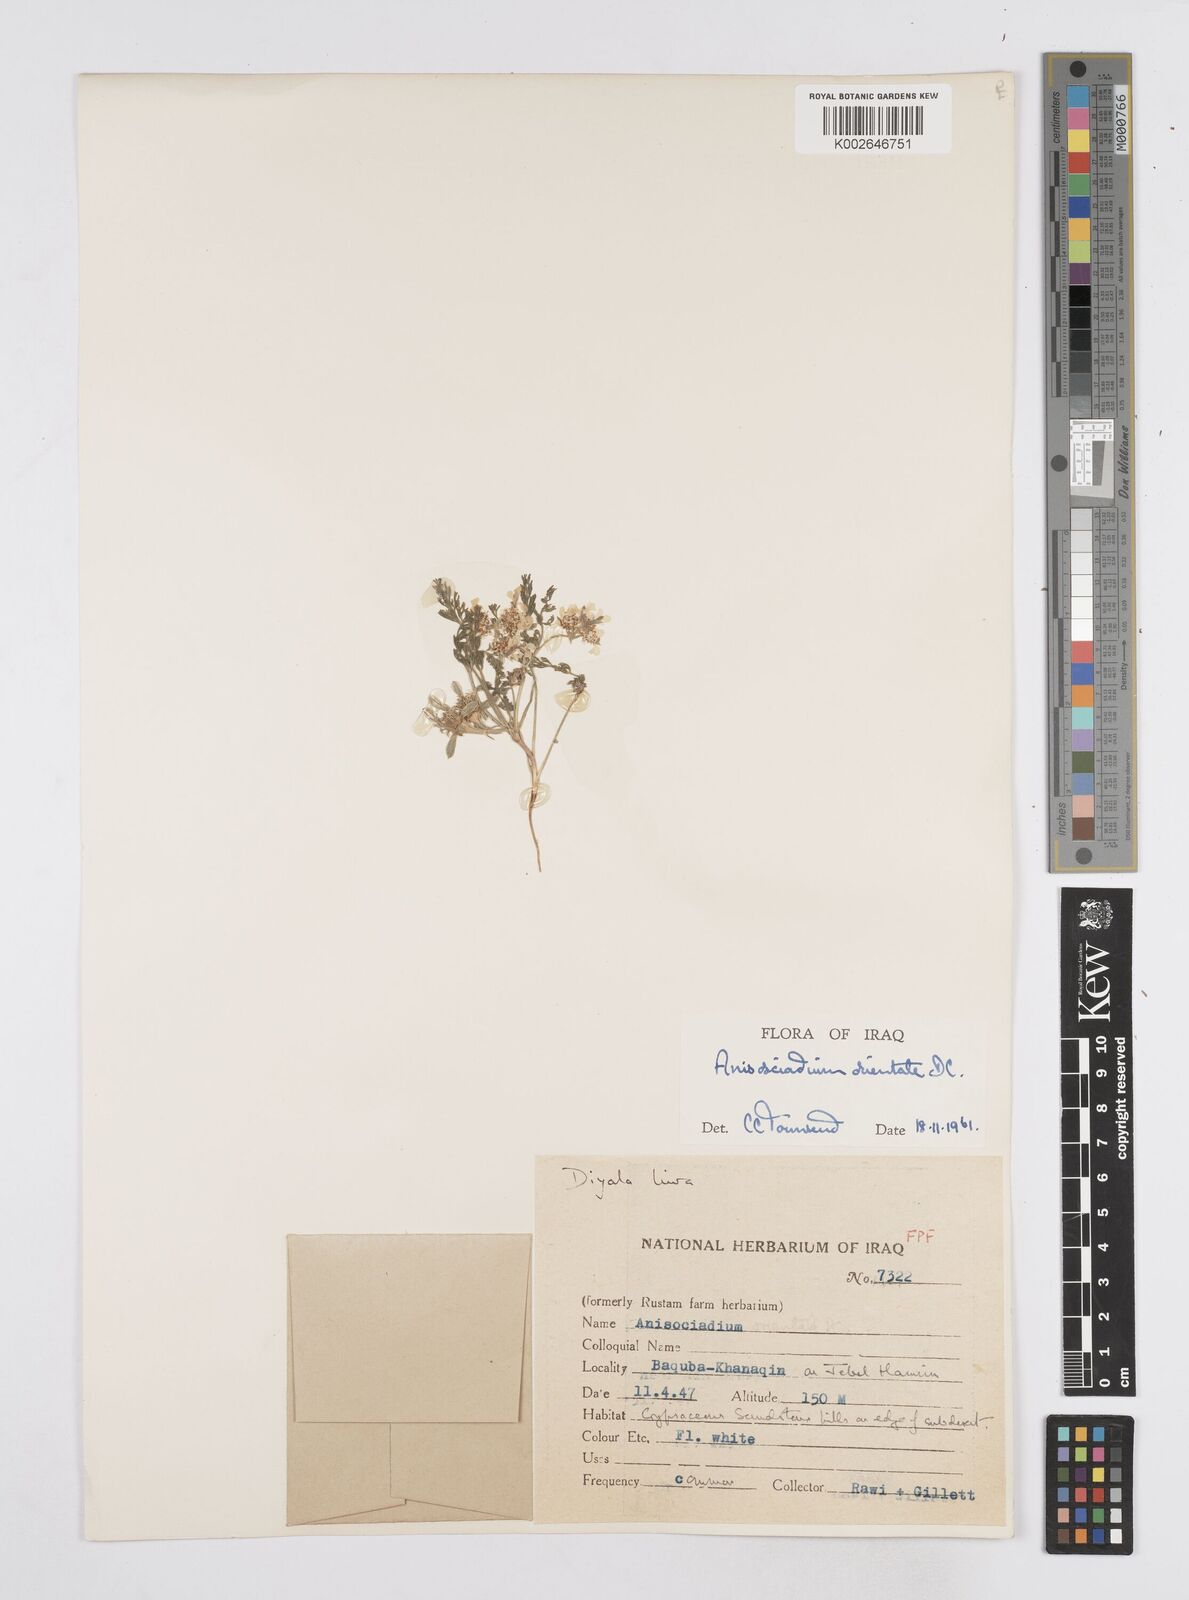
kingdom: Plantae
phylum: Tracheophyta
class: Magnoliopsida
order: Apiales
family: Apiaceae
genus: Anisosciadium
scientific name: Anisosciadium orientale
